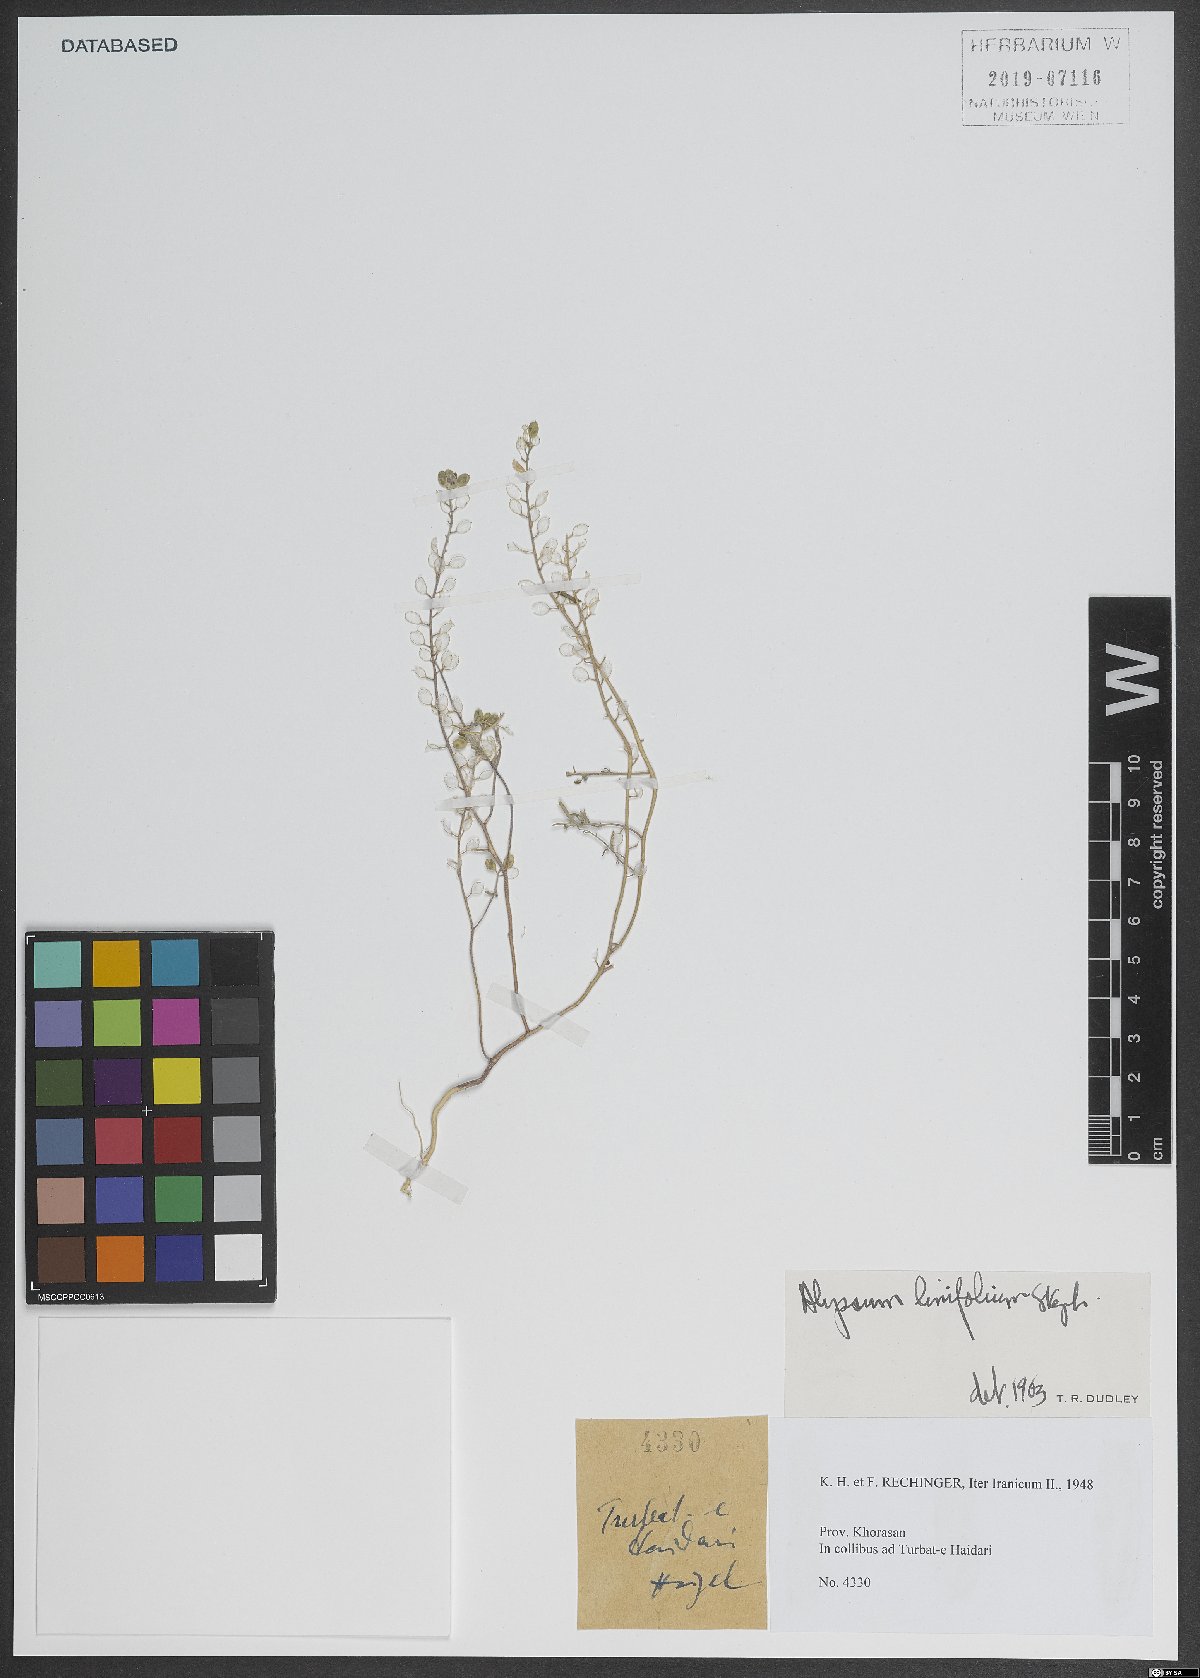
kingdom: Plantae
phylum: Tracheophyta
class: Magnoliopsida
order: Brassicales
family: Brassicaceae
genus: Meniocus
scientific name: Meniocus linifolius
